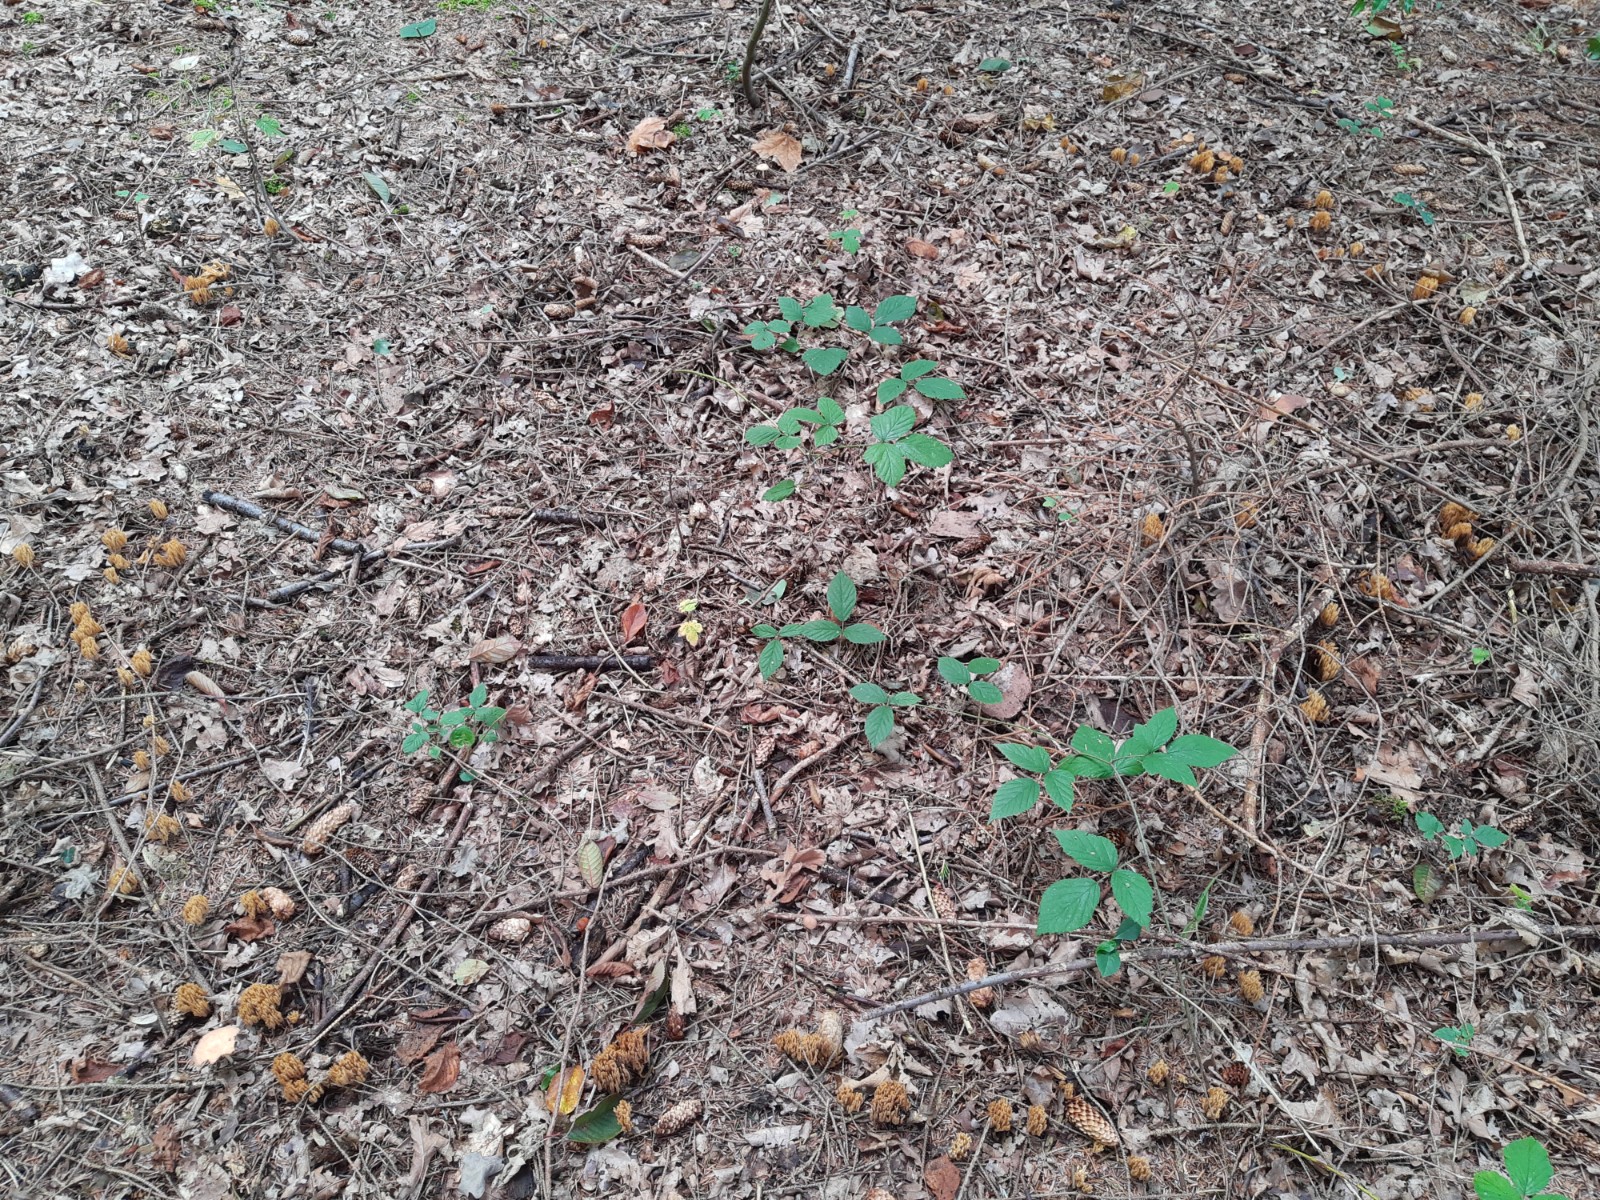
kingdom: Fungi
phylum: Basidiomycota
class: Agaricomycetes
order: Gomphales
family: Gomphaceae
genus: Phaeoclavulina
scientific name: Phaeoclavulina eumorpha
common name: gran-koralsvamp
